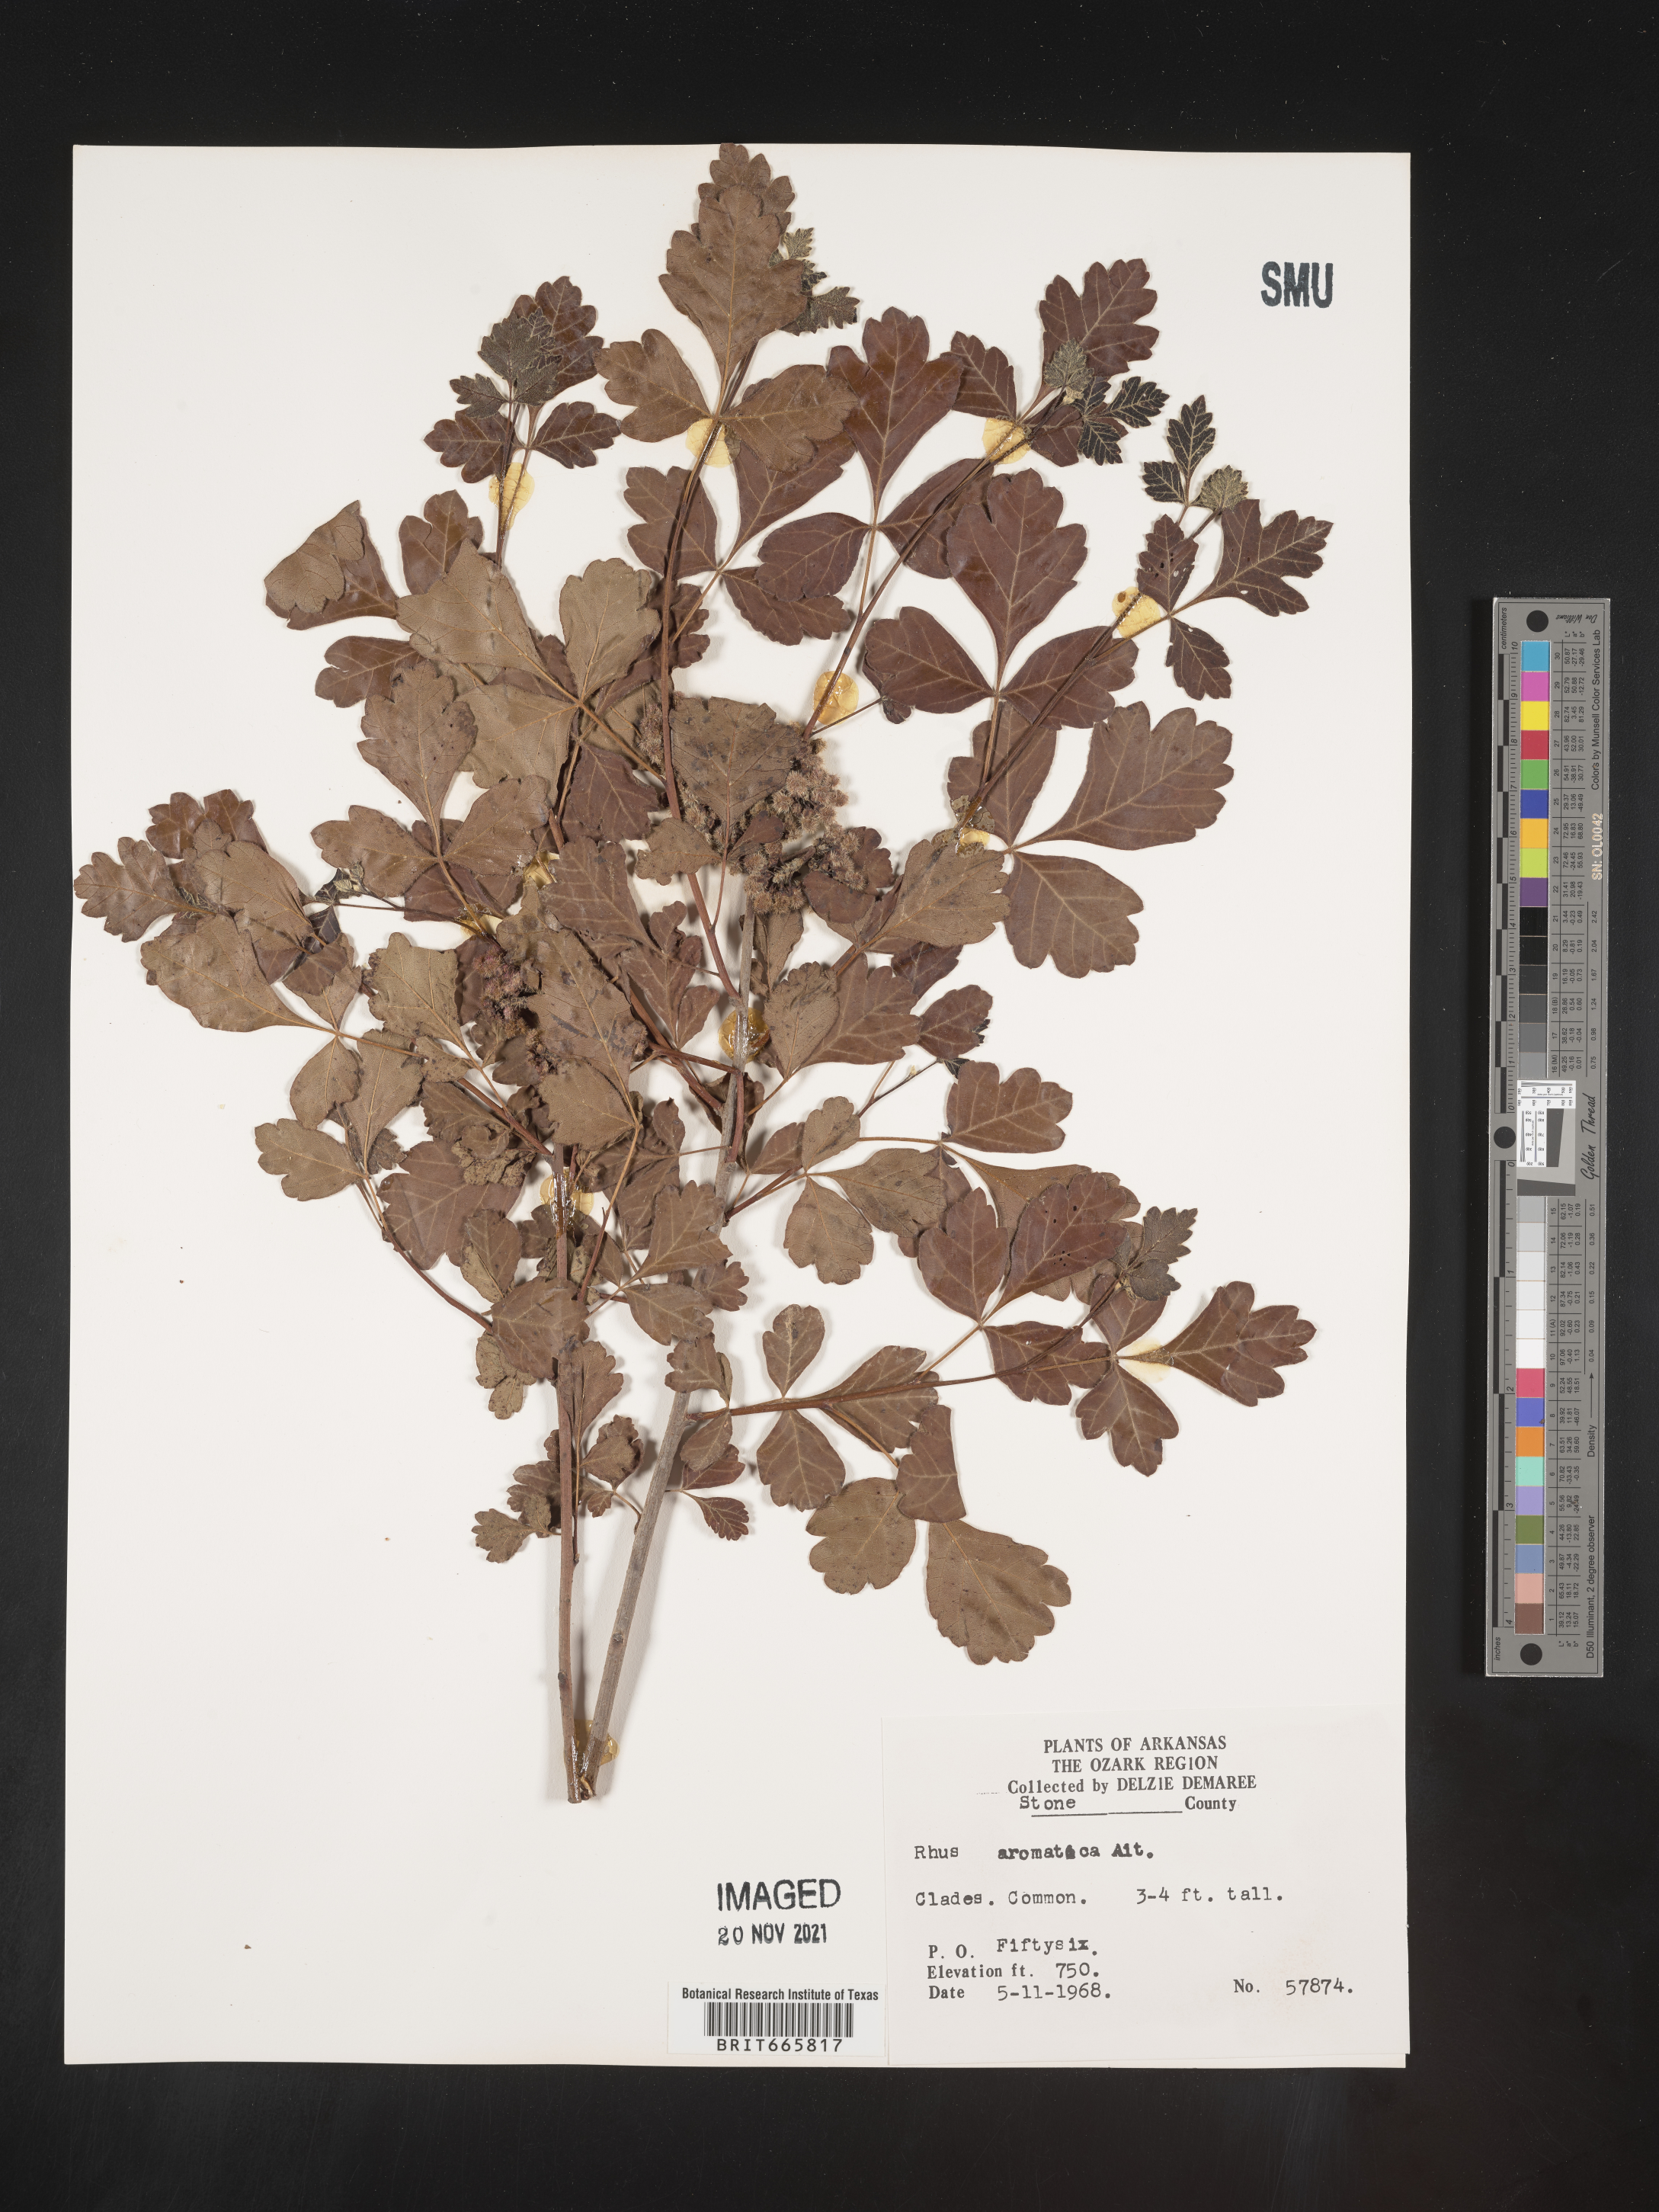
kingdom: Plantae
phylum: Tracheophyta
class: Magnoliopsida
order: Sapindales
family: Anacardiaceae
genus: Rhus
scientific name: Rhus aromatica
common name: Aromatic sumac
